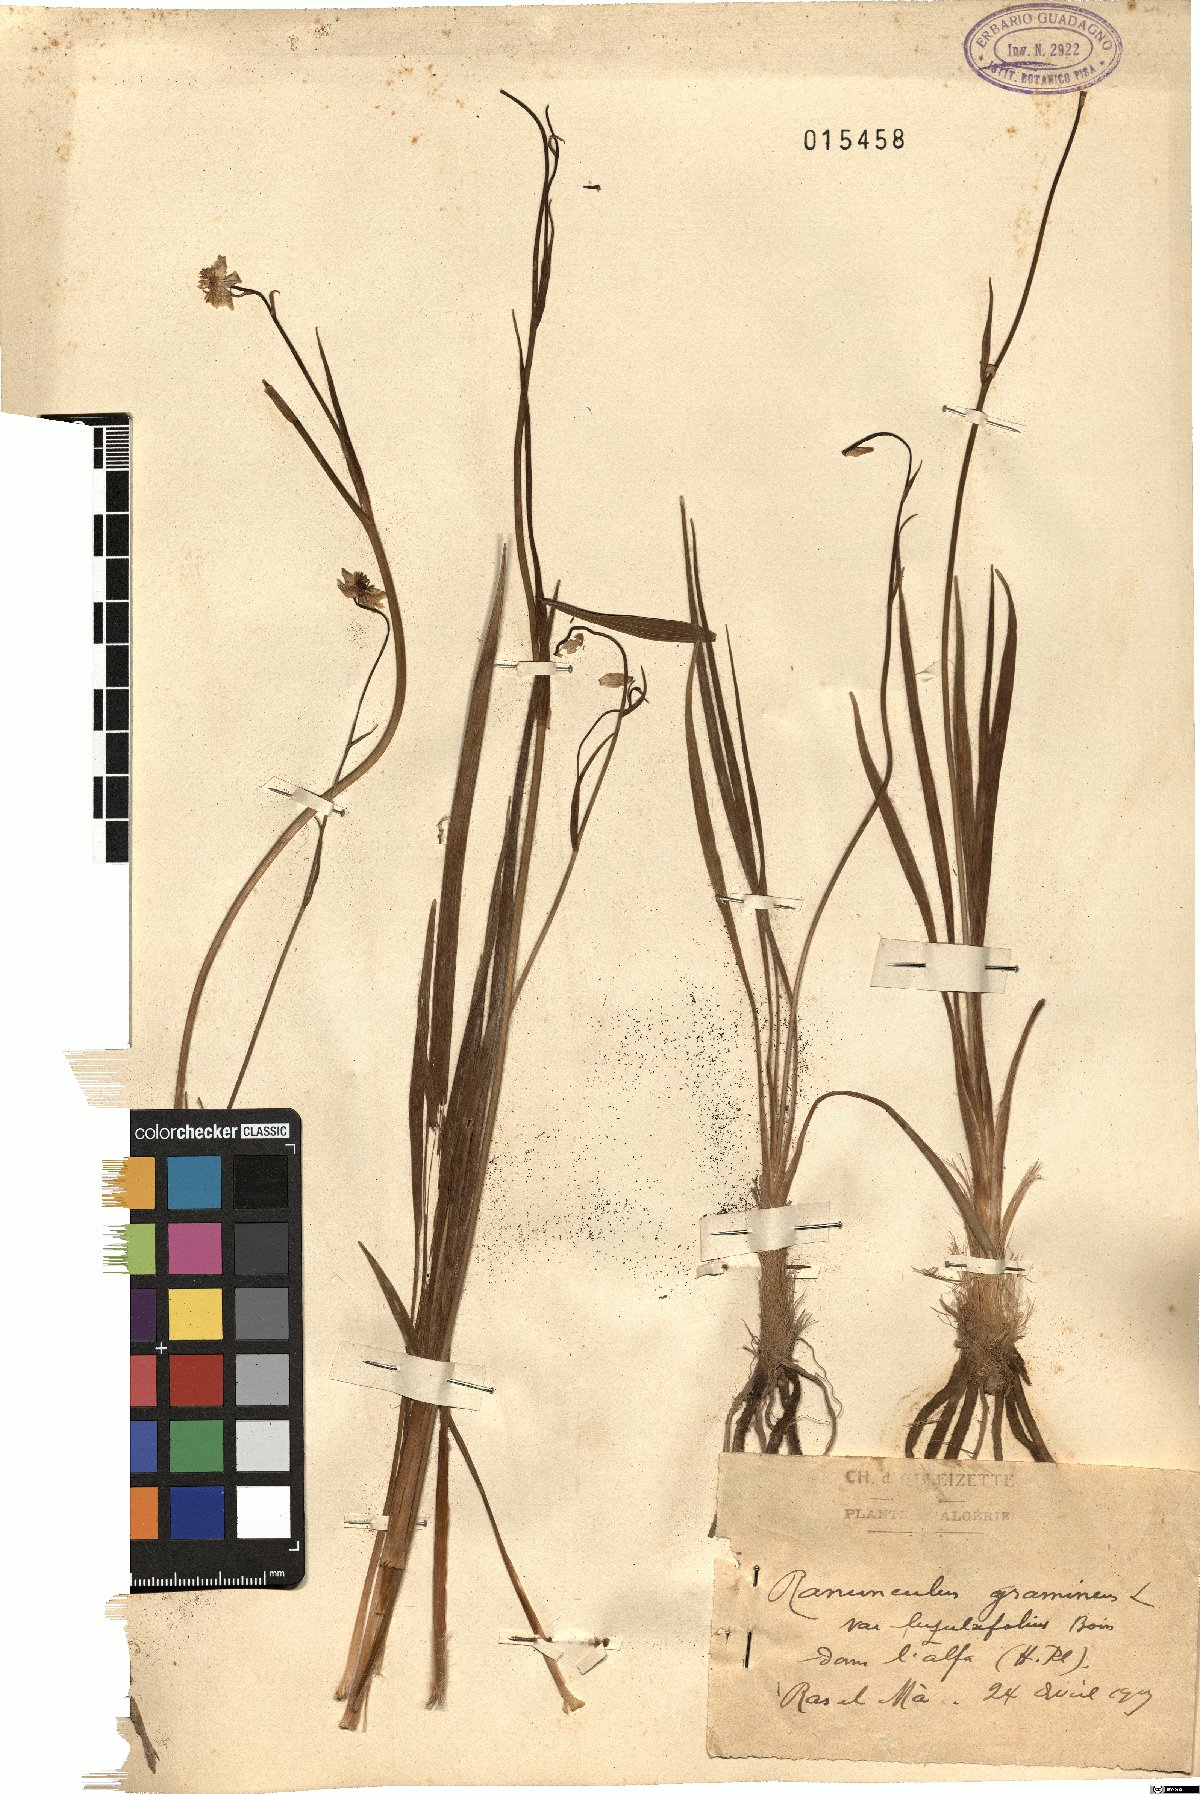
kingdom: Plantae
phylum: Tracheophyta
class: Magnoliopsida
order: Ranunculales
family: Ranunculaceae
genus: Ranunculus
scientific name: Ranunculus gramineus
